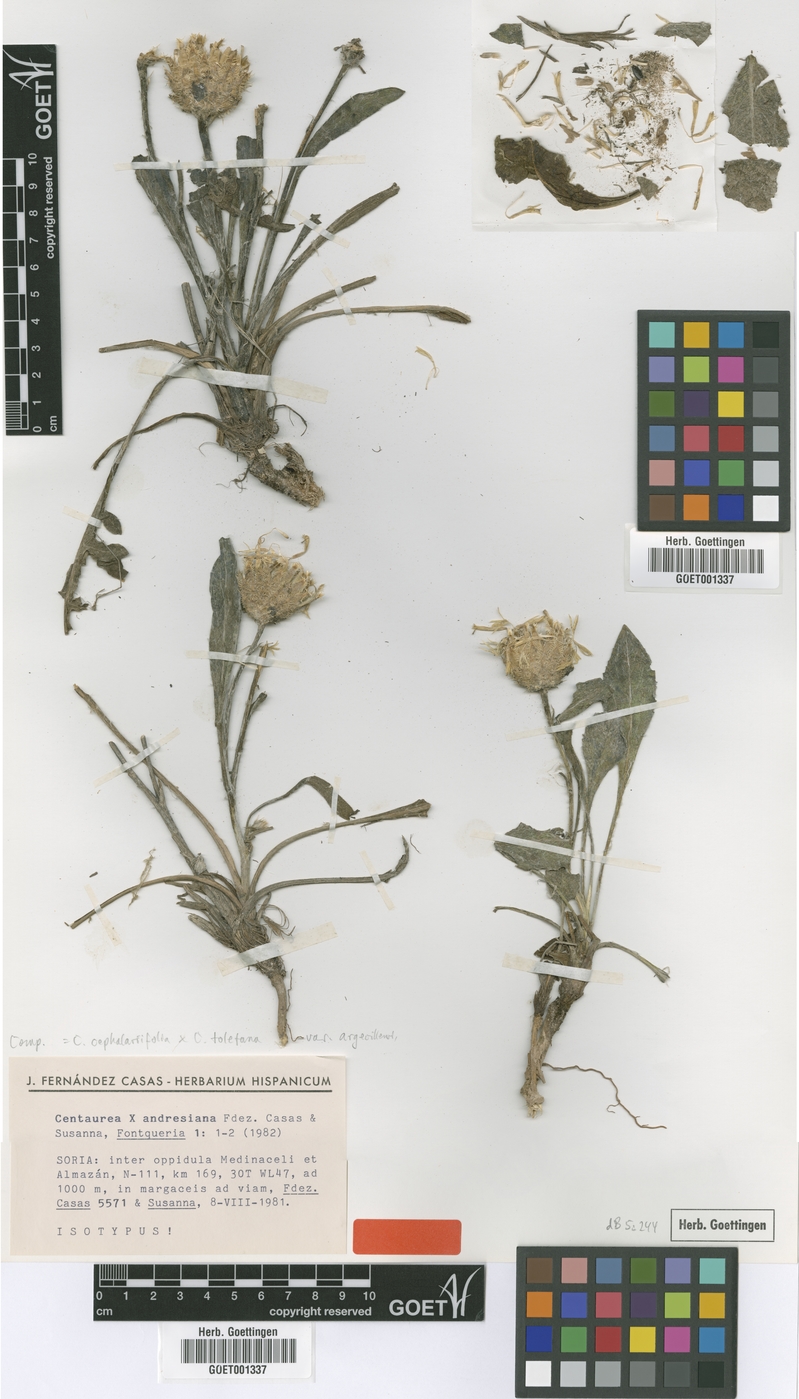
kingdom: Plantae
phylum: Tracheophyta
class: Magnoliopsida
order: Asterales
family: Asteraceae
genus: Centaurea
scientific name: Centaurea andresiana
